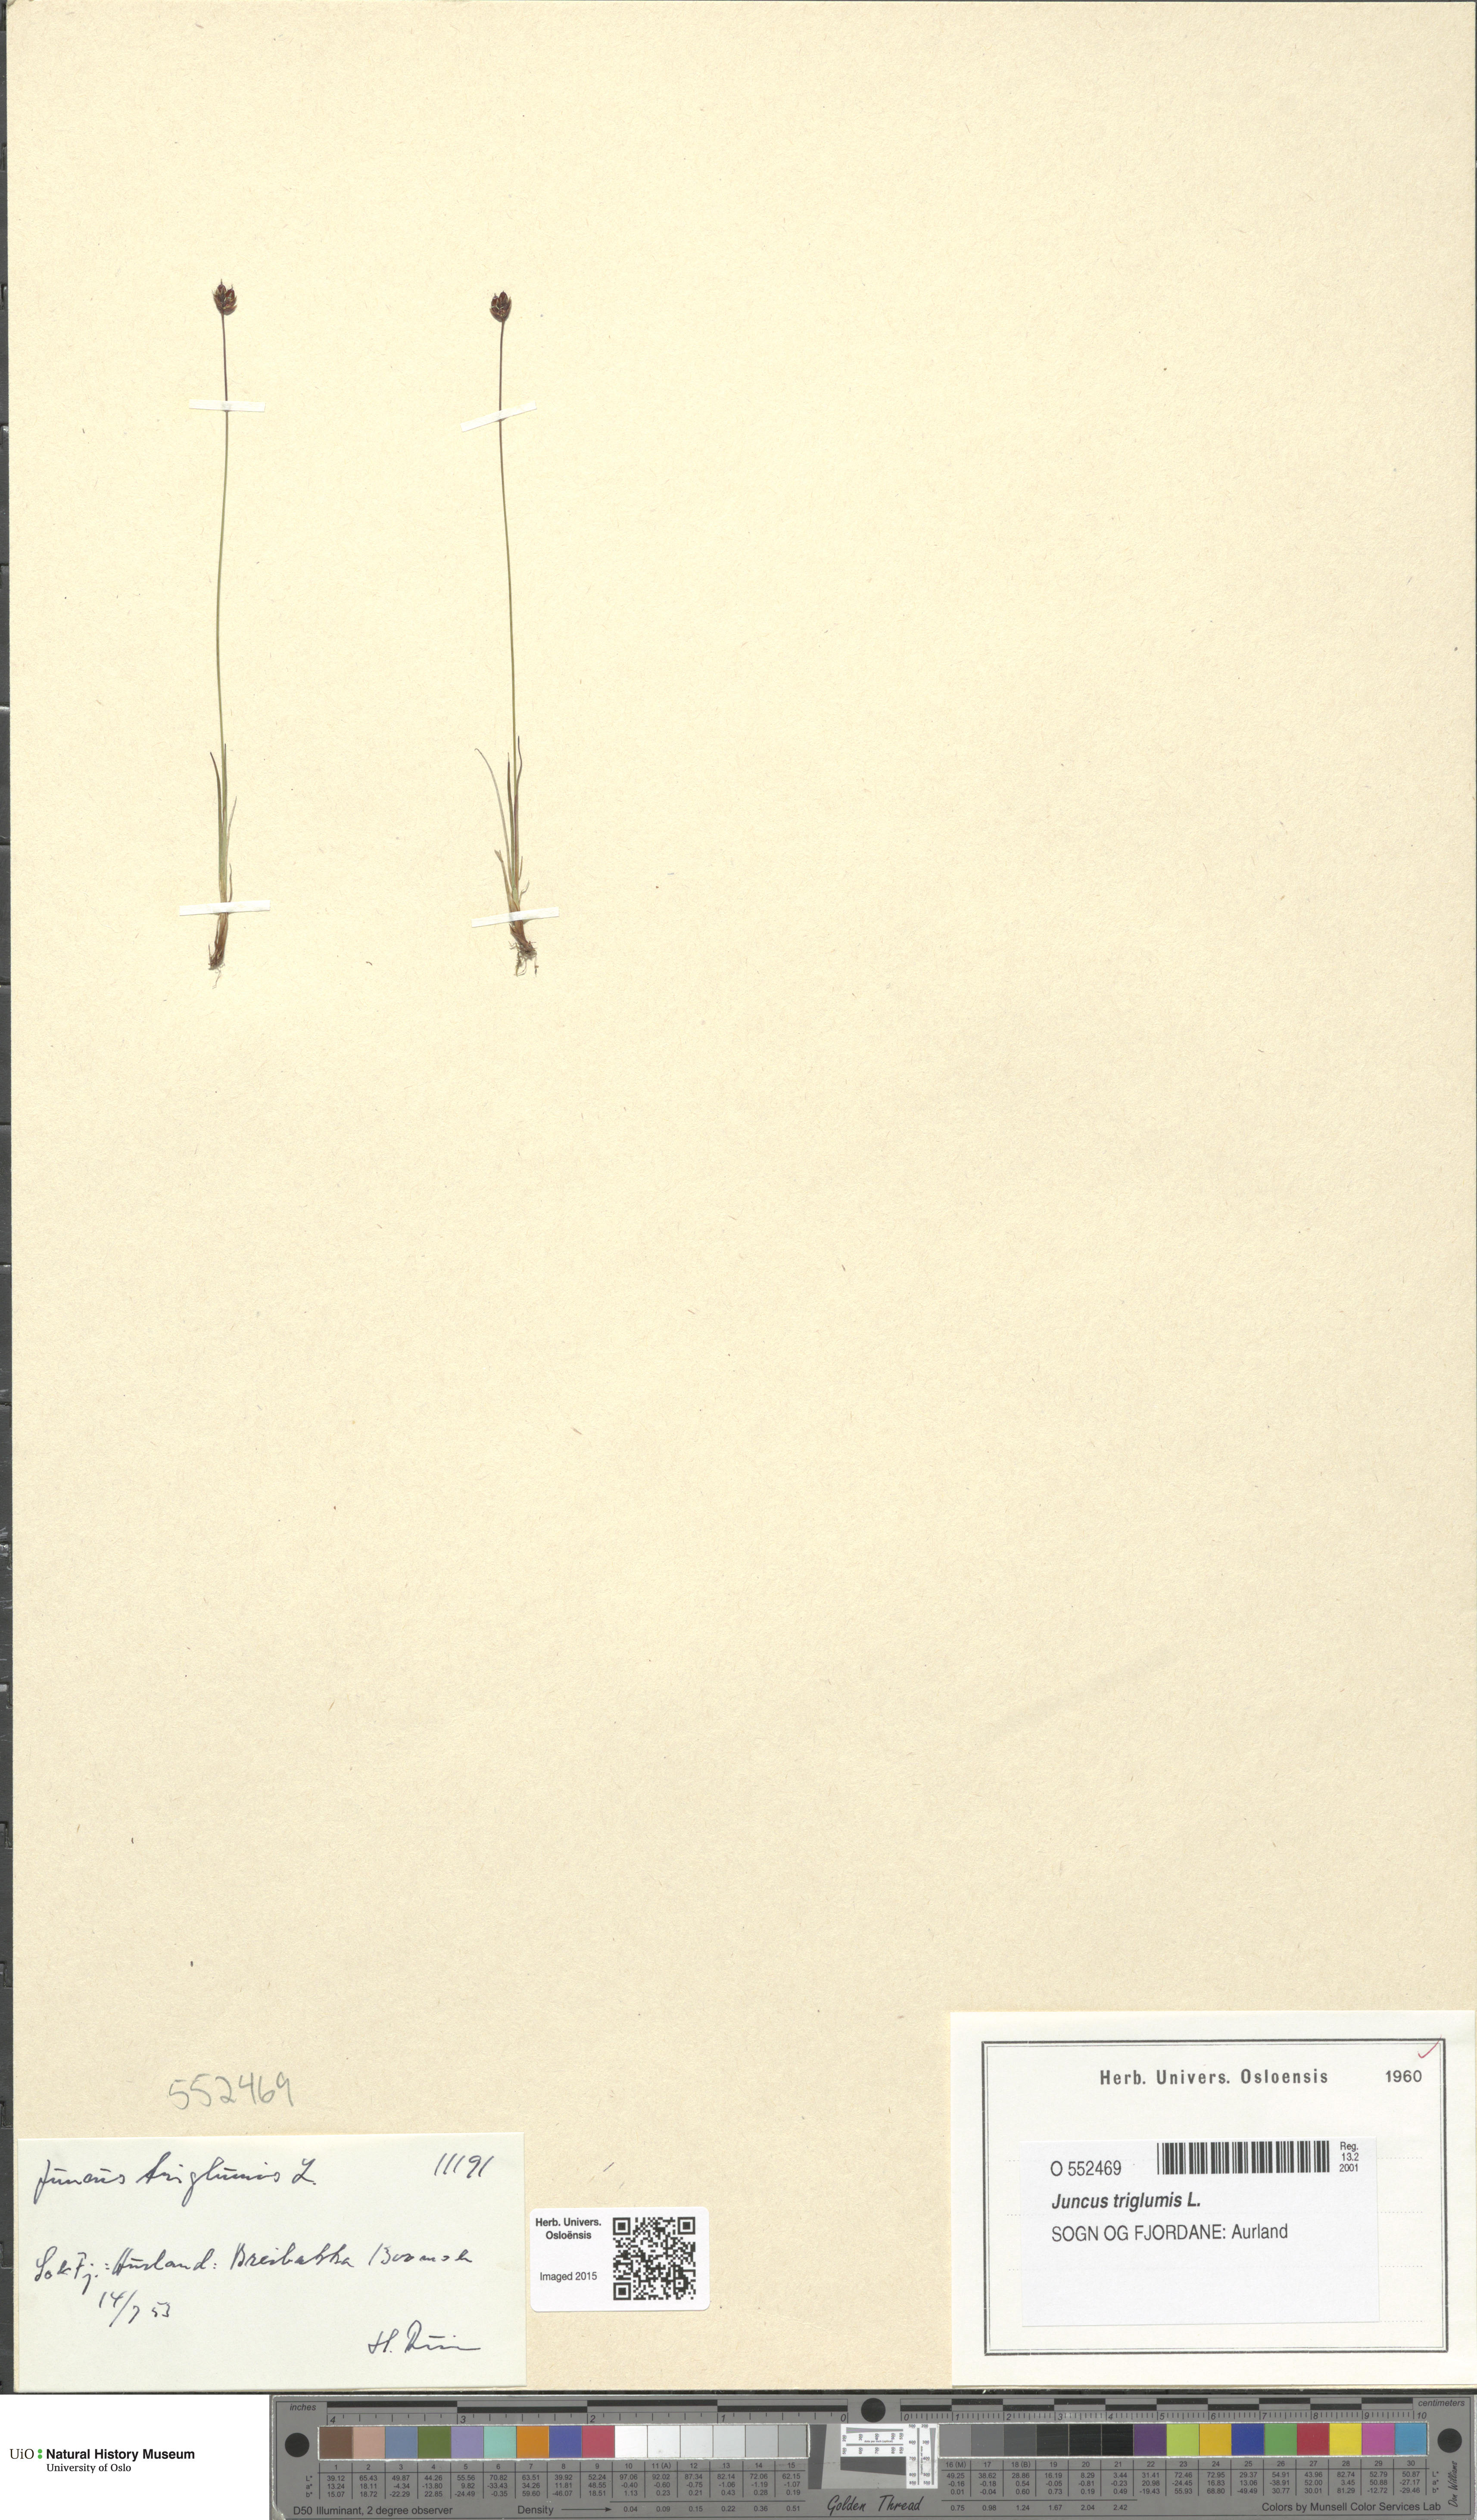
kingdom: Plantae
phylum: Tracheophyta
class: Liliopsida
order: Poales
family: Juncaceae
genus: Juncus
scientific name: Juncus triglumis
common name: Three-flowered rush
